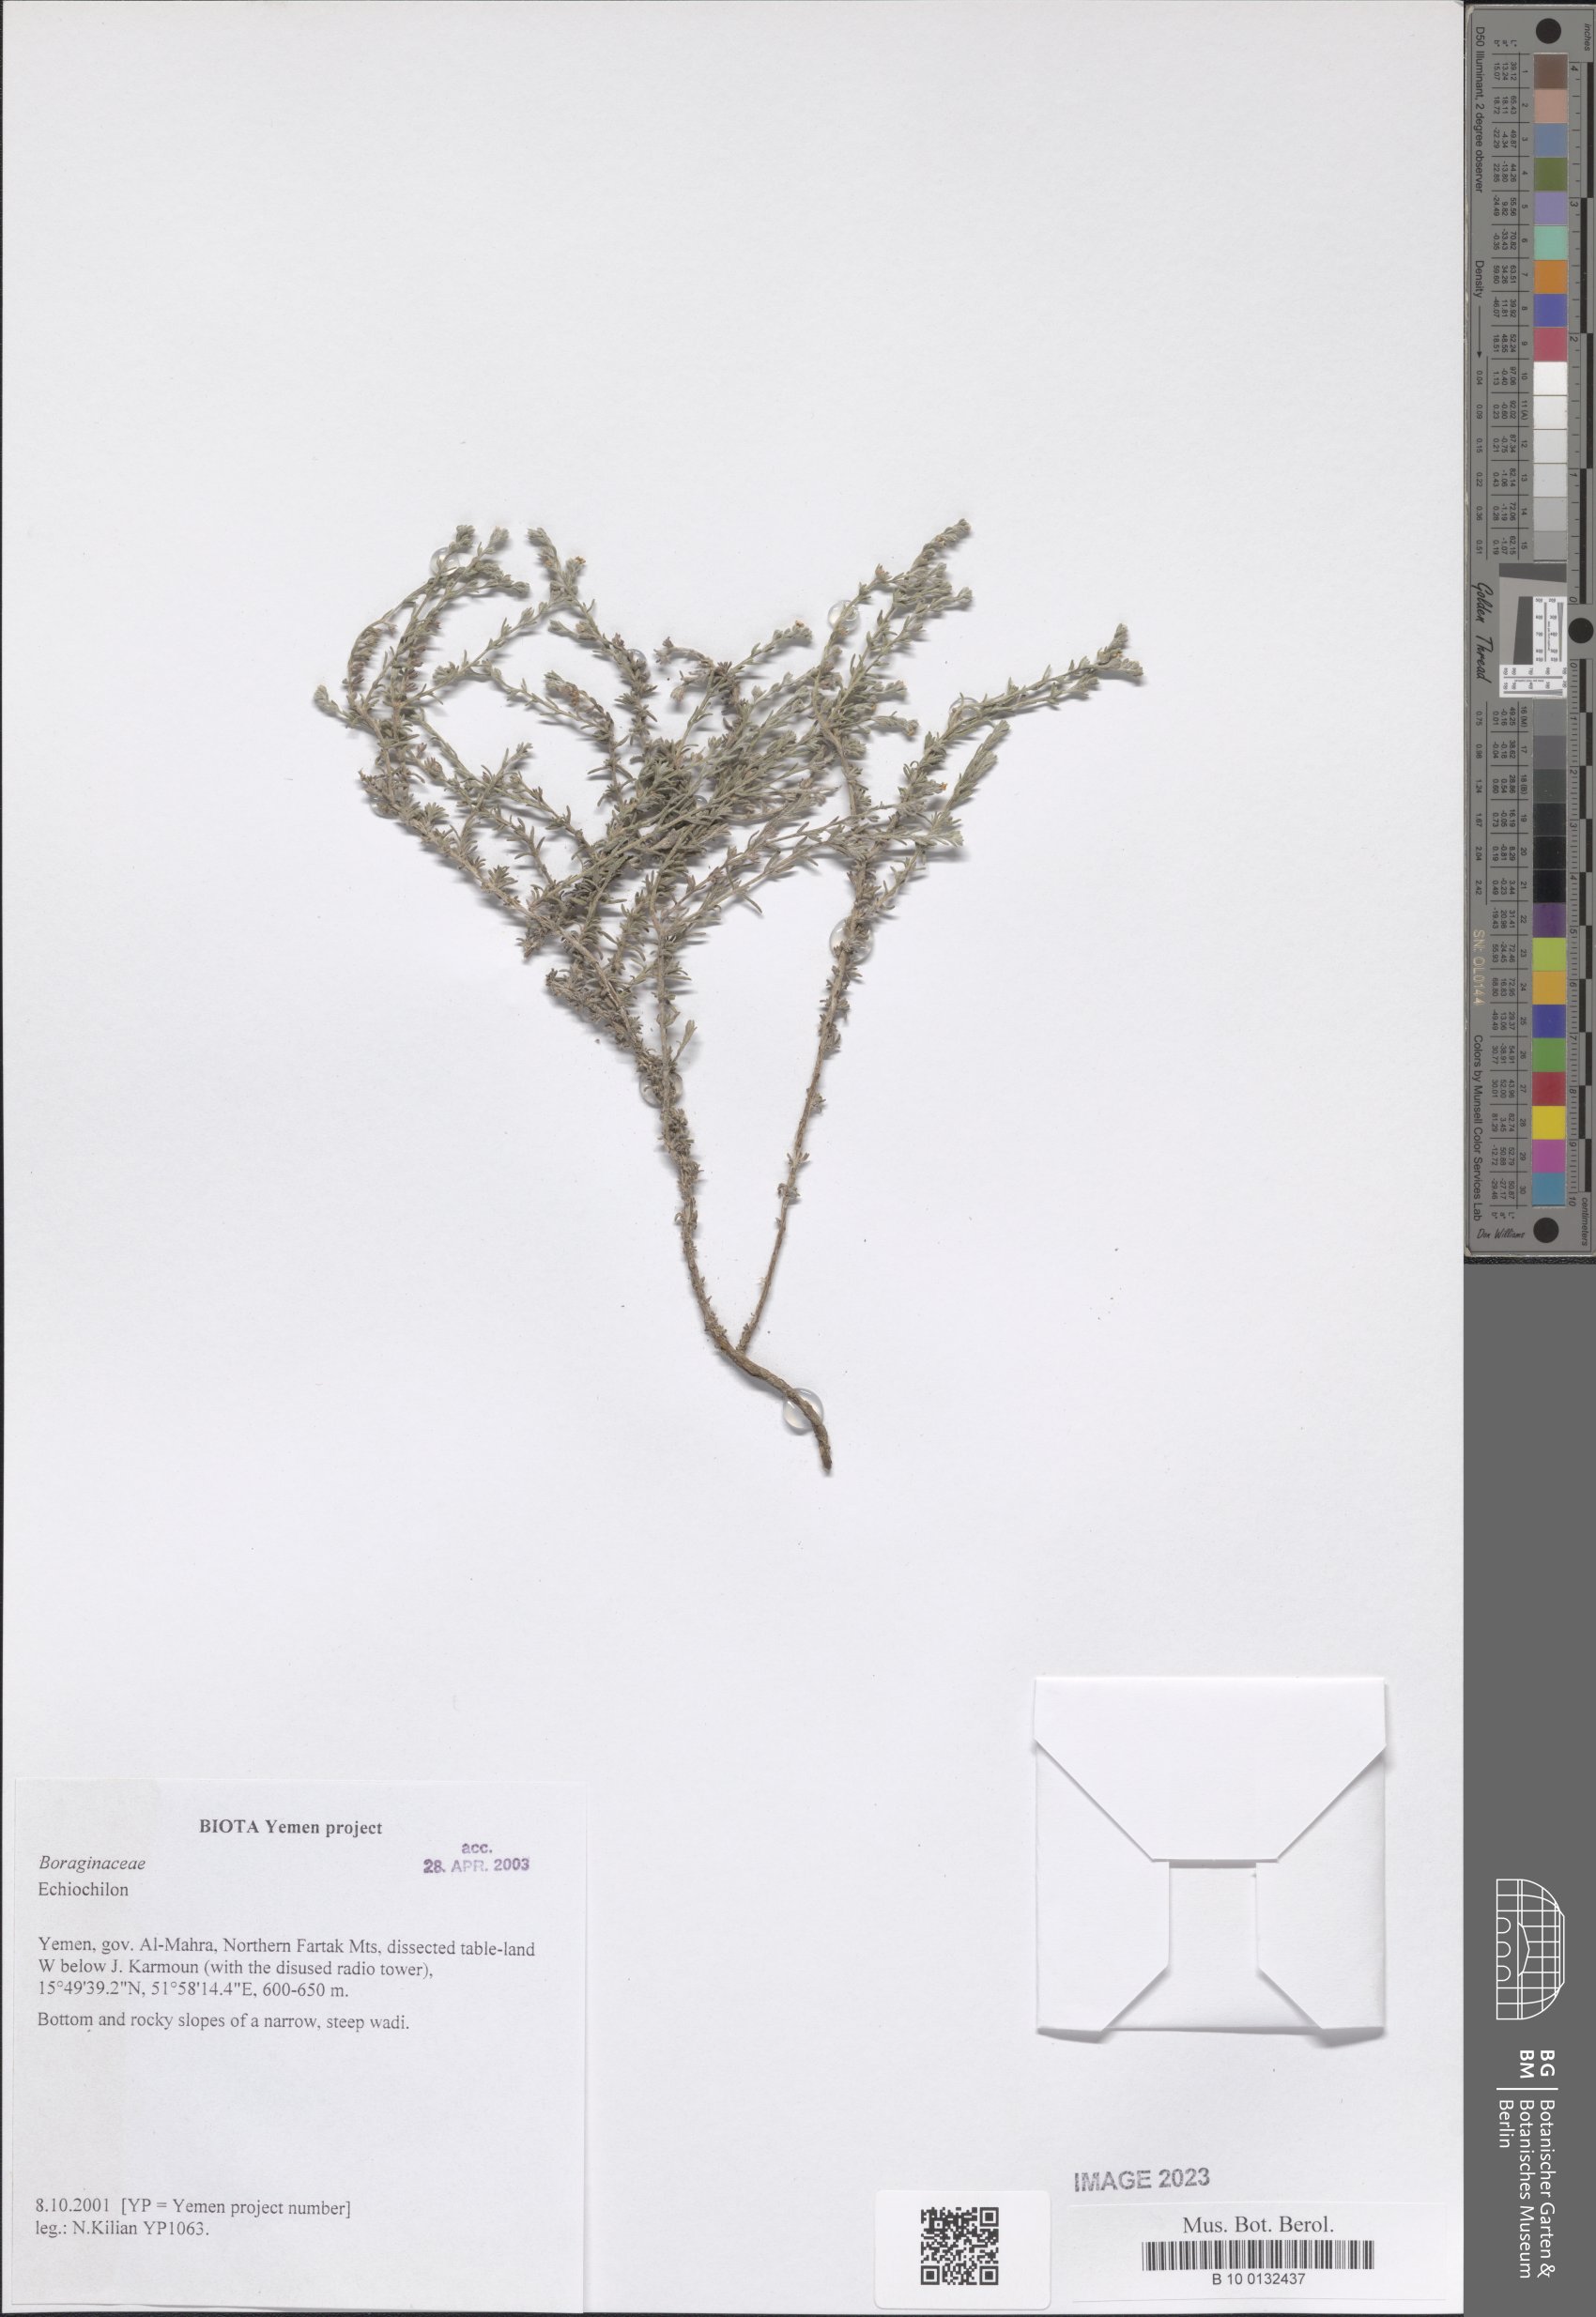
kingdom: Plantae
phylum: Tracheophyta
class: Magnoliopsida
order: Boraginales
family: Boraginaceae
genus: Echiochilon
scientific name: Echiochilon
